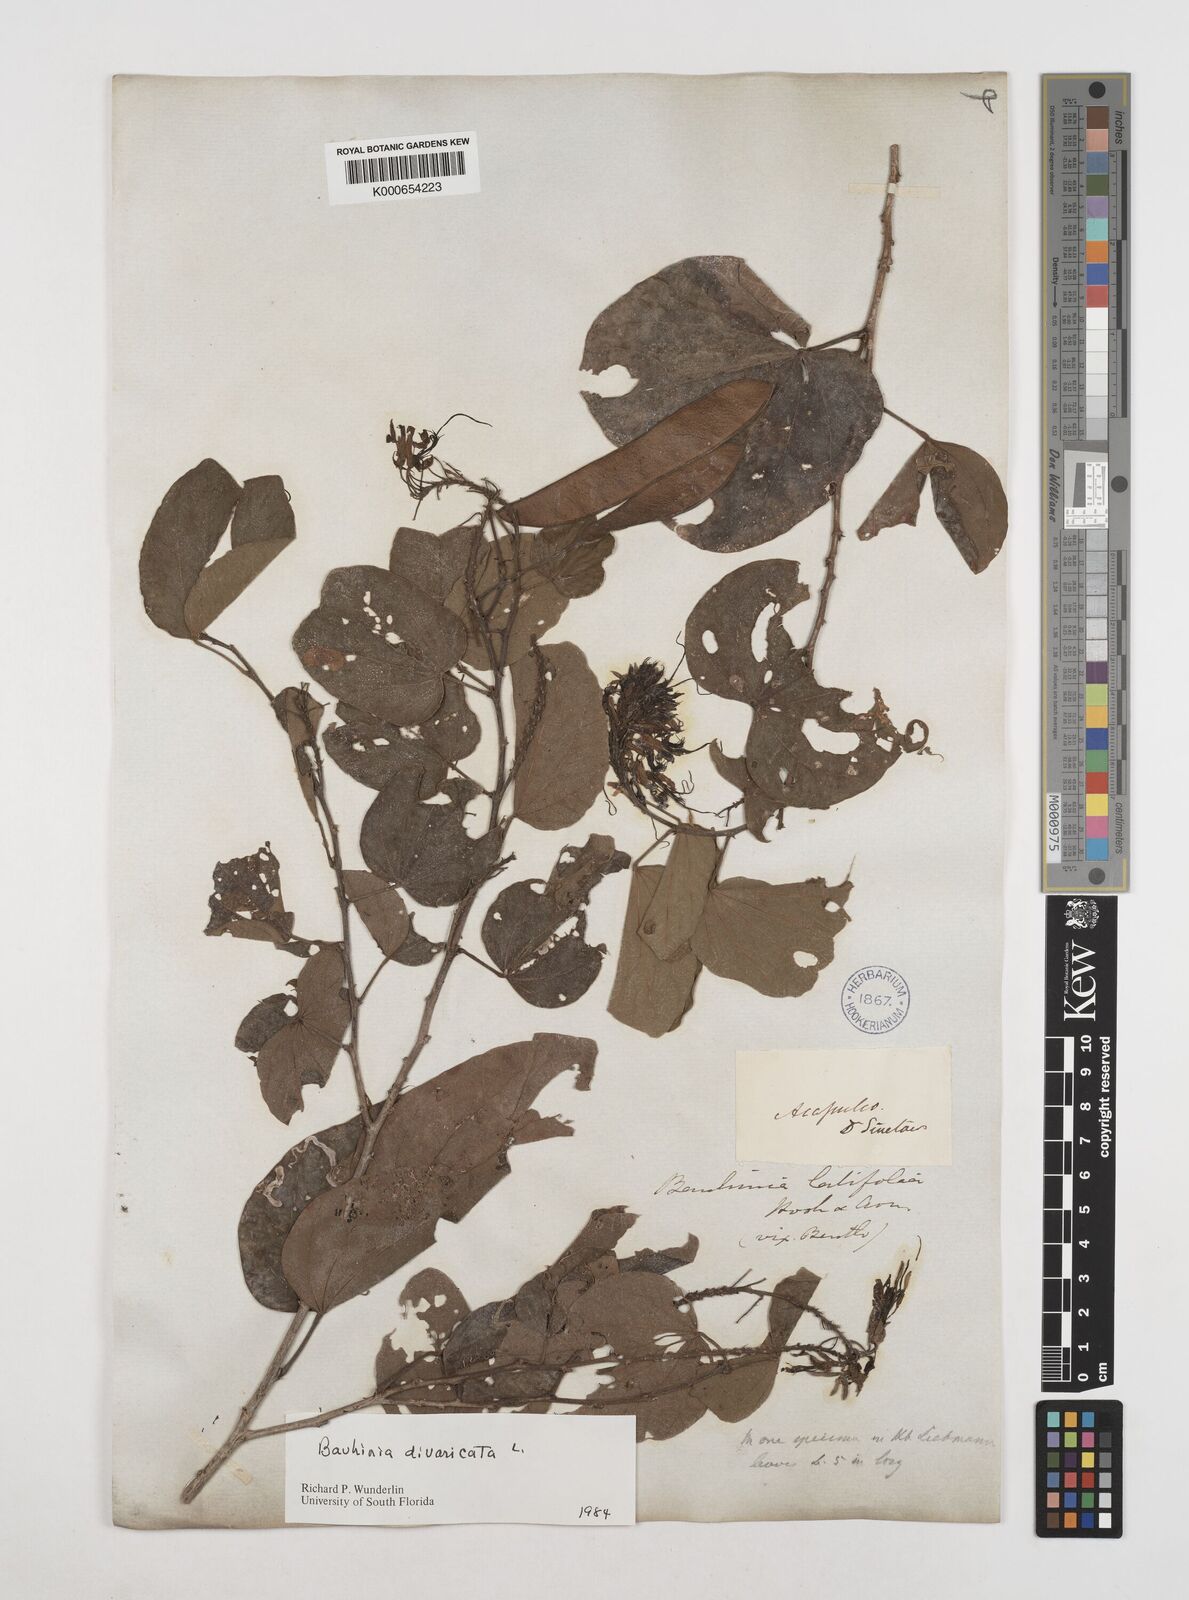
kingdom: Plantae
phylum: Tracheophyta
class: Magnoliopsida
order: Fabales
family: Fabaceae
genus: Bauhinia
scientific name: Bauhinia divaricata
